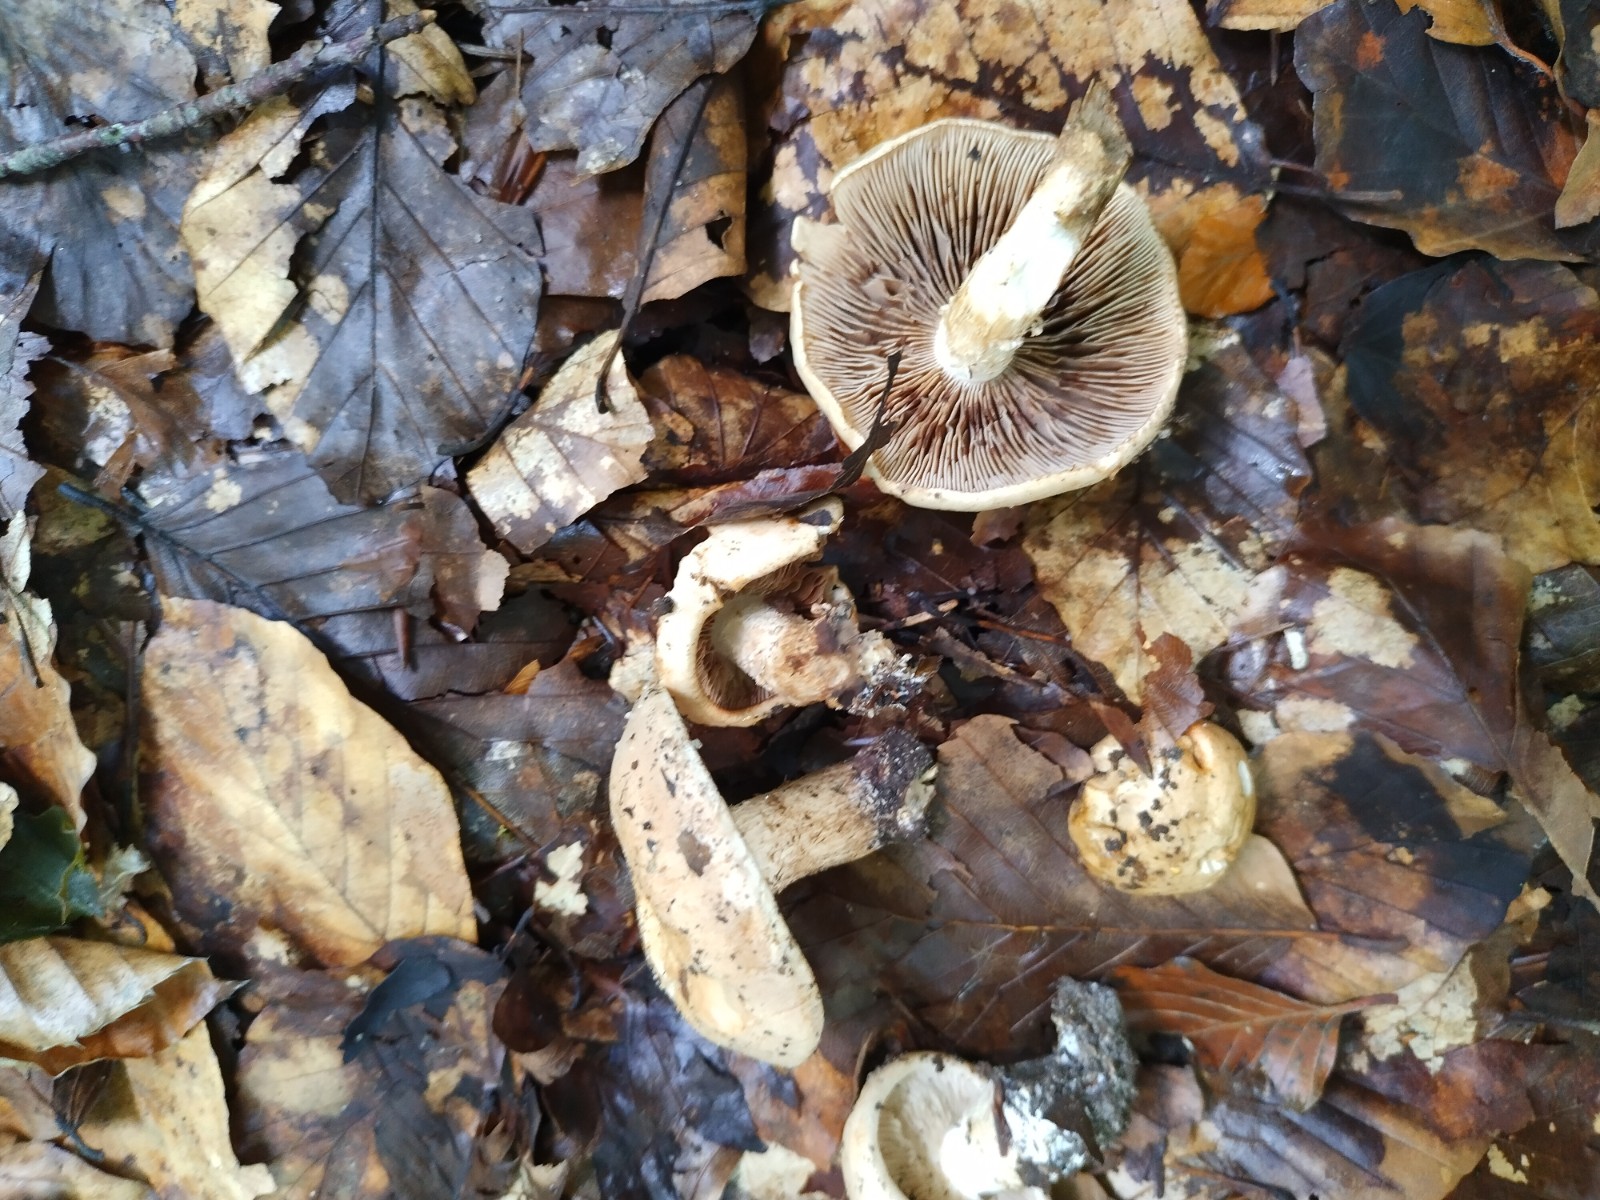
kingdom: Fungi
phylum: Basidiomycota
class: Agaricomycetes
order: Agaricales
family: Hymenogastraceae
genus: Hebeloma
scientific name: Hebeloma laterinum
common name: kakao-tåreblad
